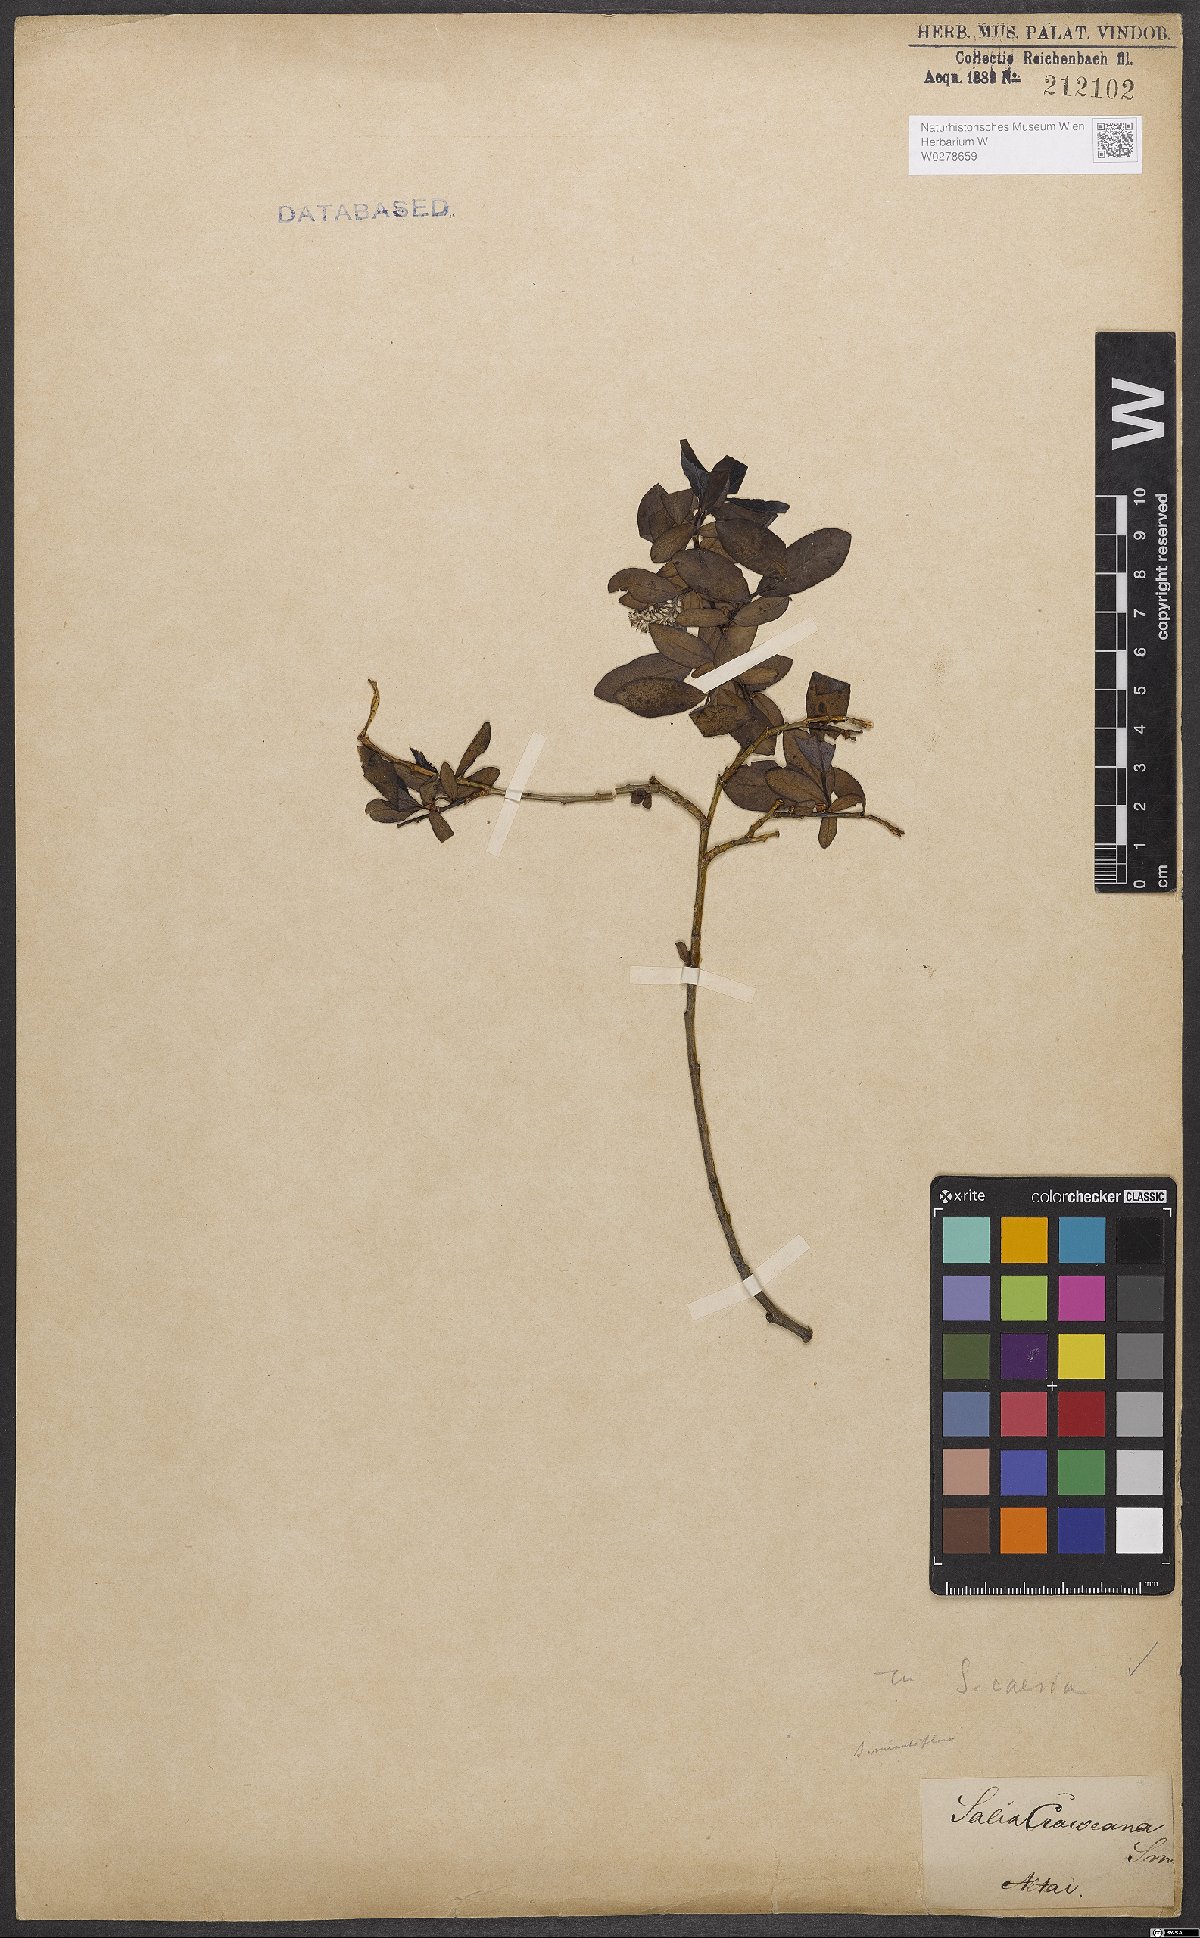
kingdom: Plantae
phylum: Tracheophyta
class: Magnoliopsida
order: Malpighiales
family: Salicaceae
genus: Salix
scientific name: Salix caesia
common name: Blue willow
